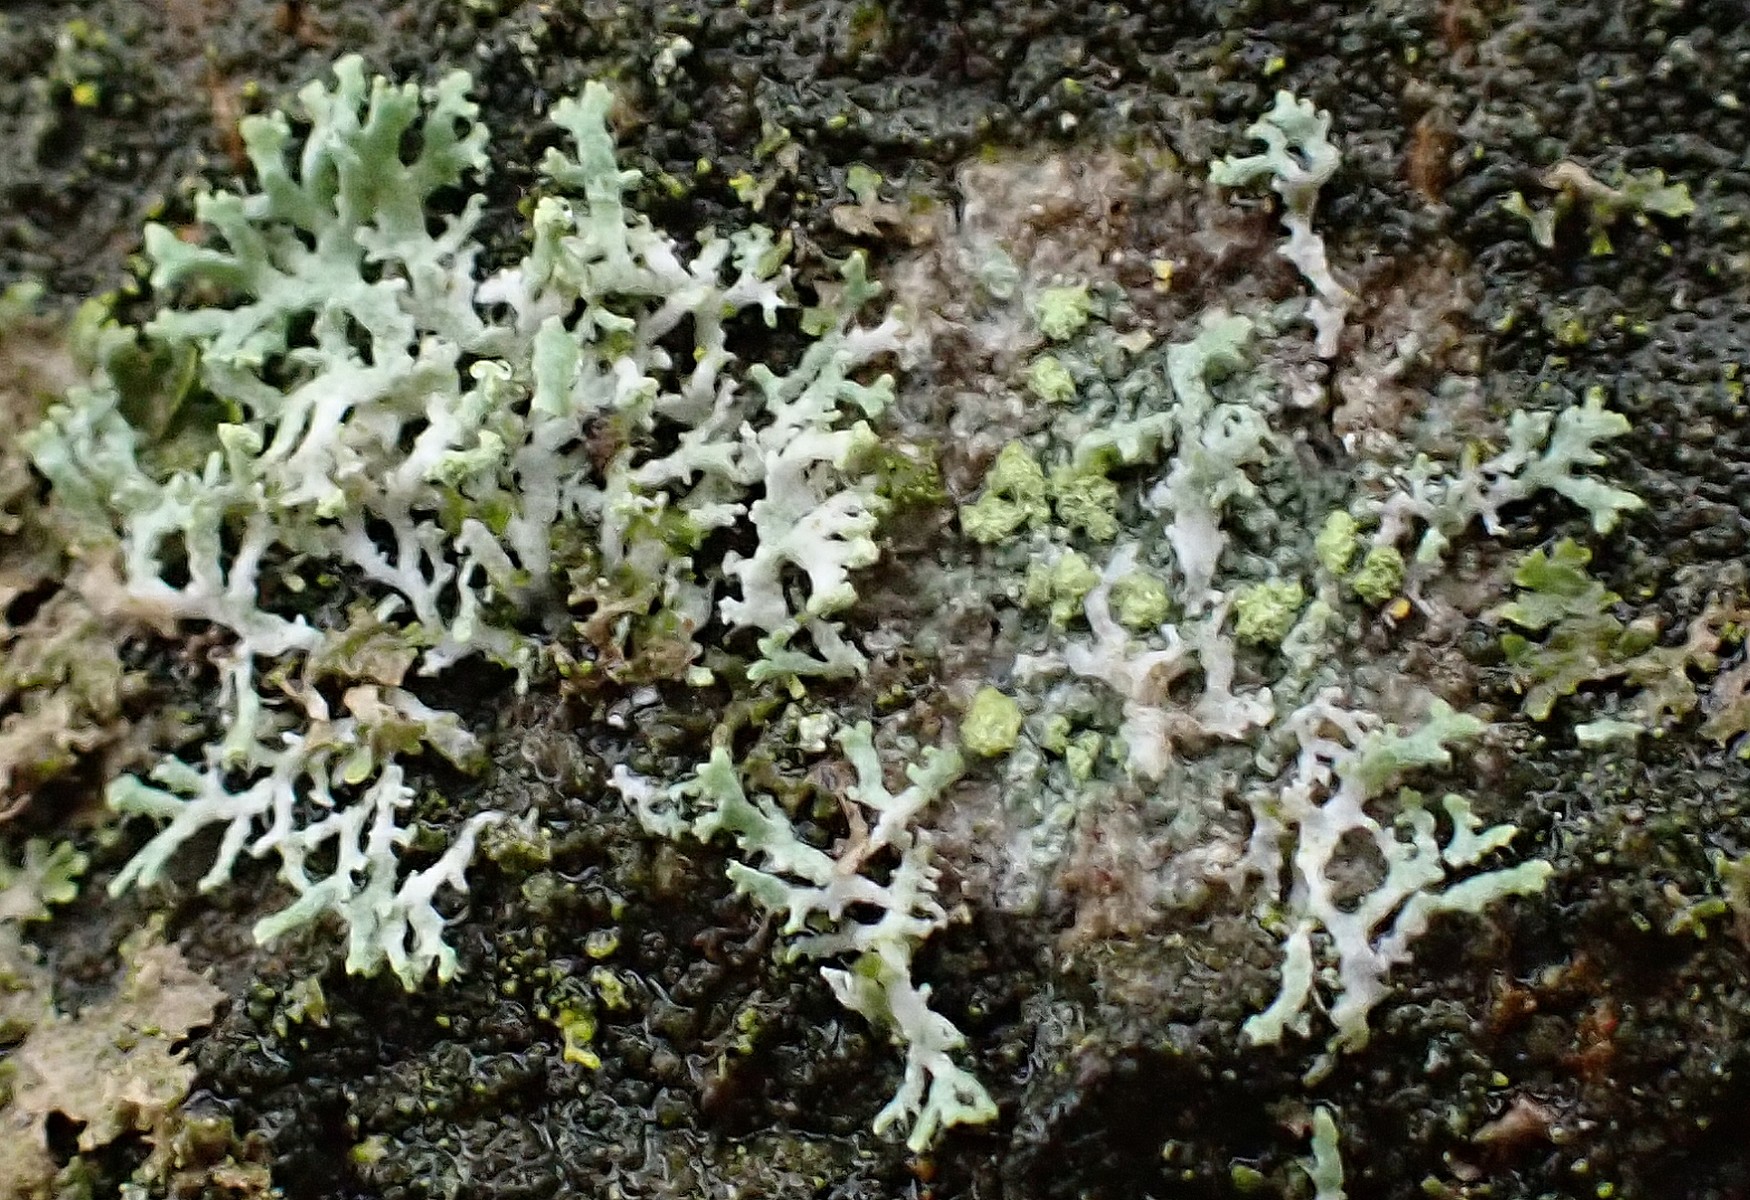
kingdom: Fungi
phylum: Ascomycota
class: Lecanoromycetes
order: Caliciales
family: Physciaceae
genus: Physcia
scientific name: Physcia tenella
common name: spæd rosetlav
